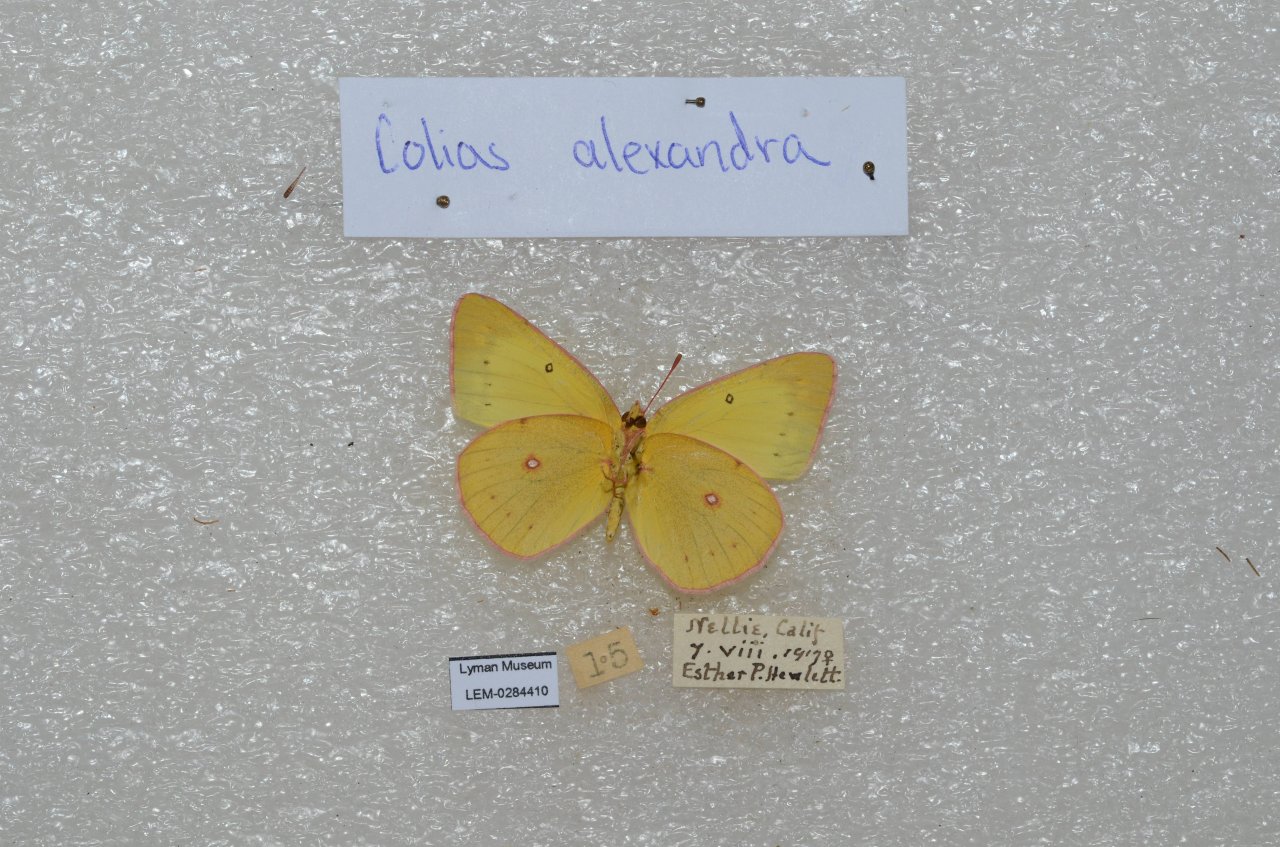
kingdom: Animalia
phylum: Arthropoda
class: Insecta
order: Lepidoptera
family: Pieridae
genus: Colias
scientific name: Colias alexandra
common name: Queen Alexandra's Sulphur
